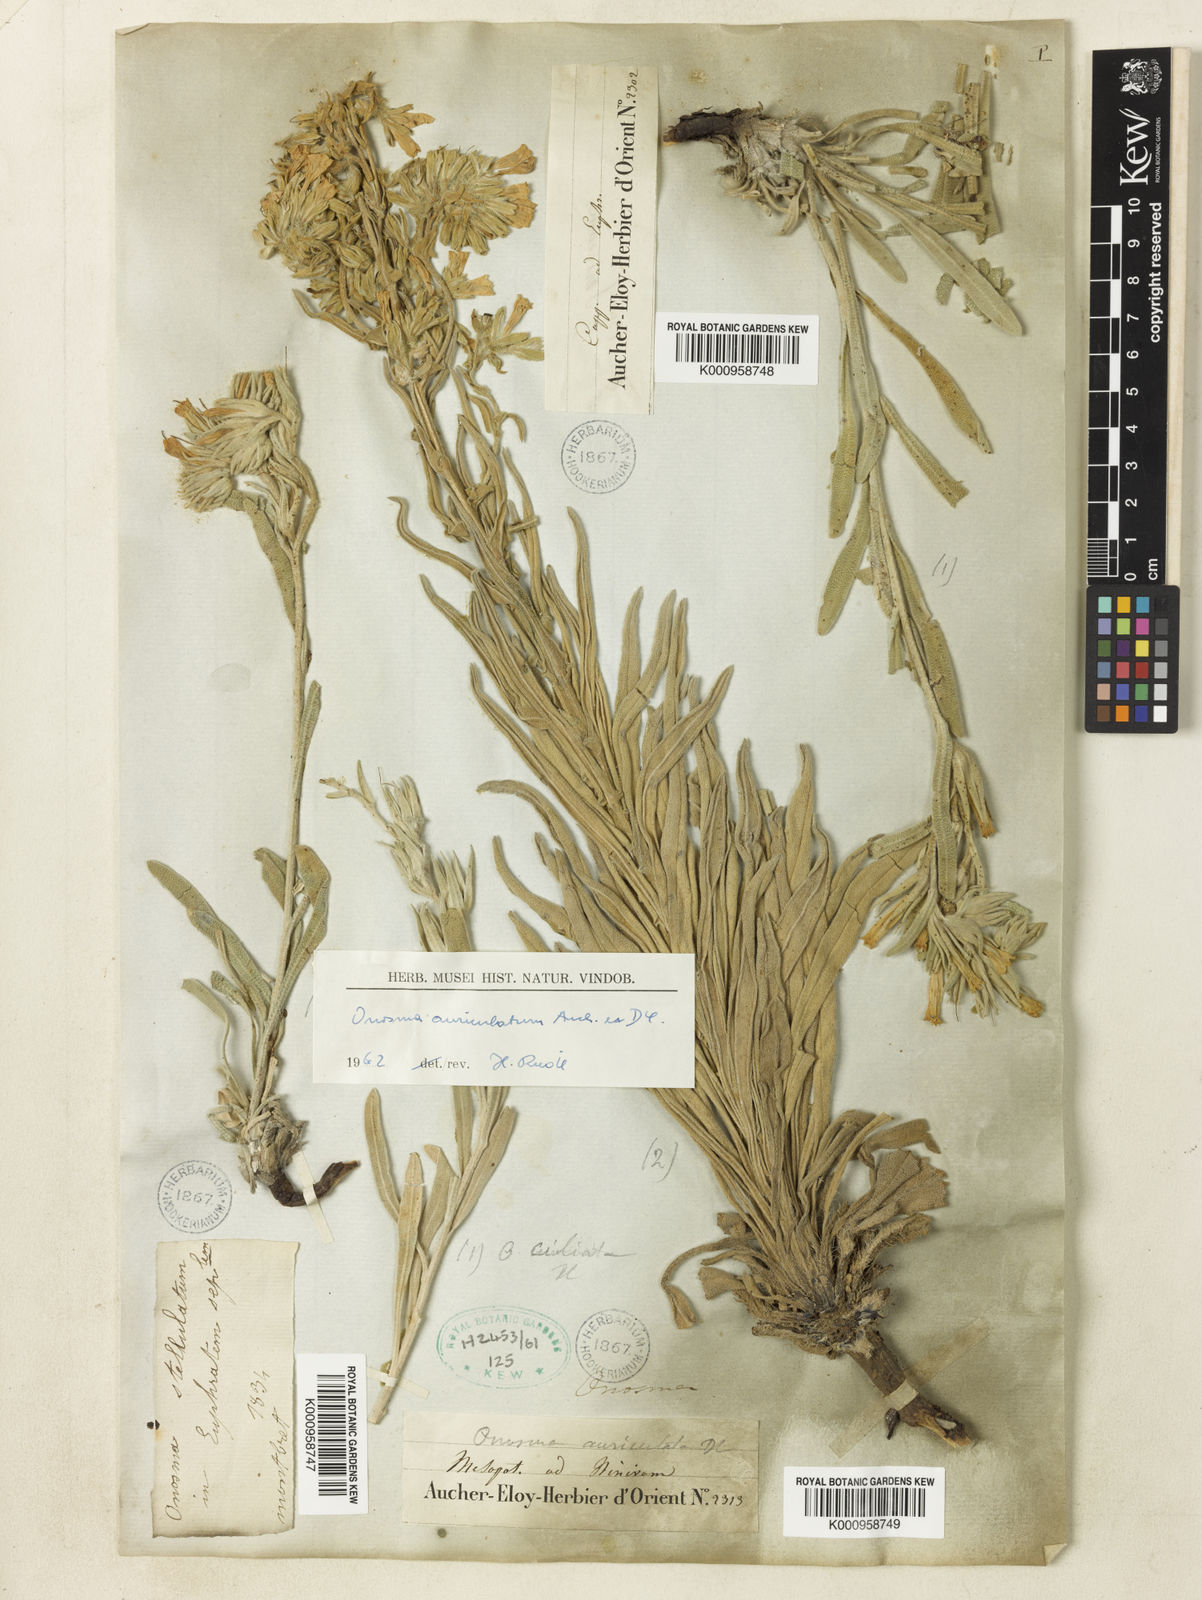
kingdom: Plantae
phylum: Tracheophyta
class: Magnoliopsida
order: Boraginales
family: Boraginaceae
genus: Onosma
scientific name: Onosma auriculata
